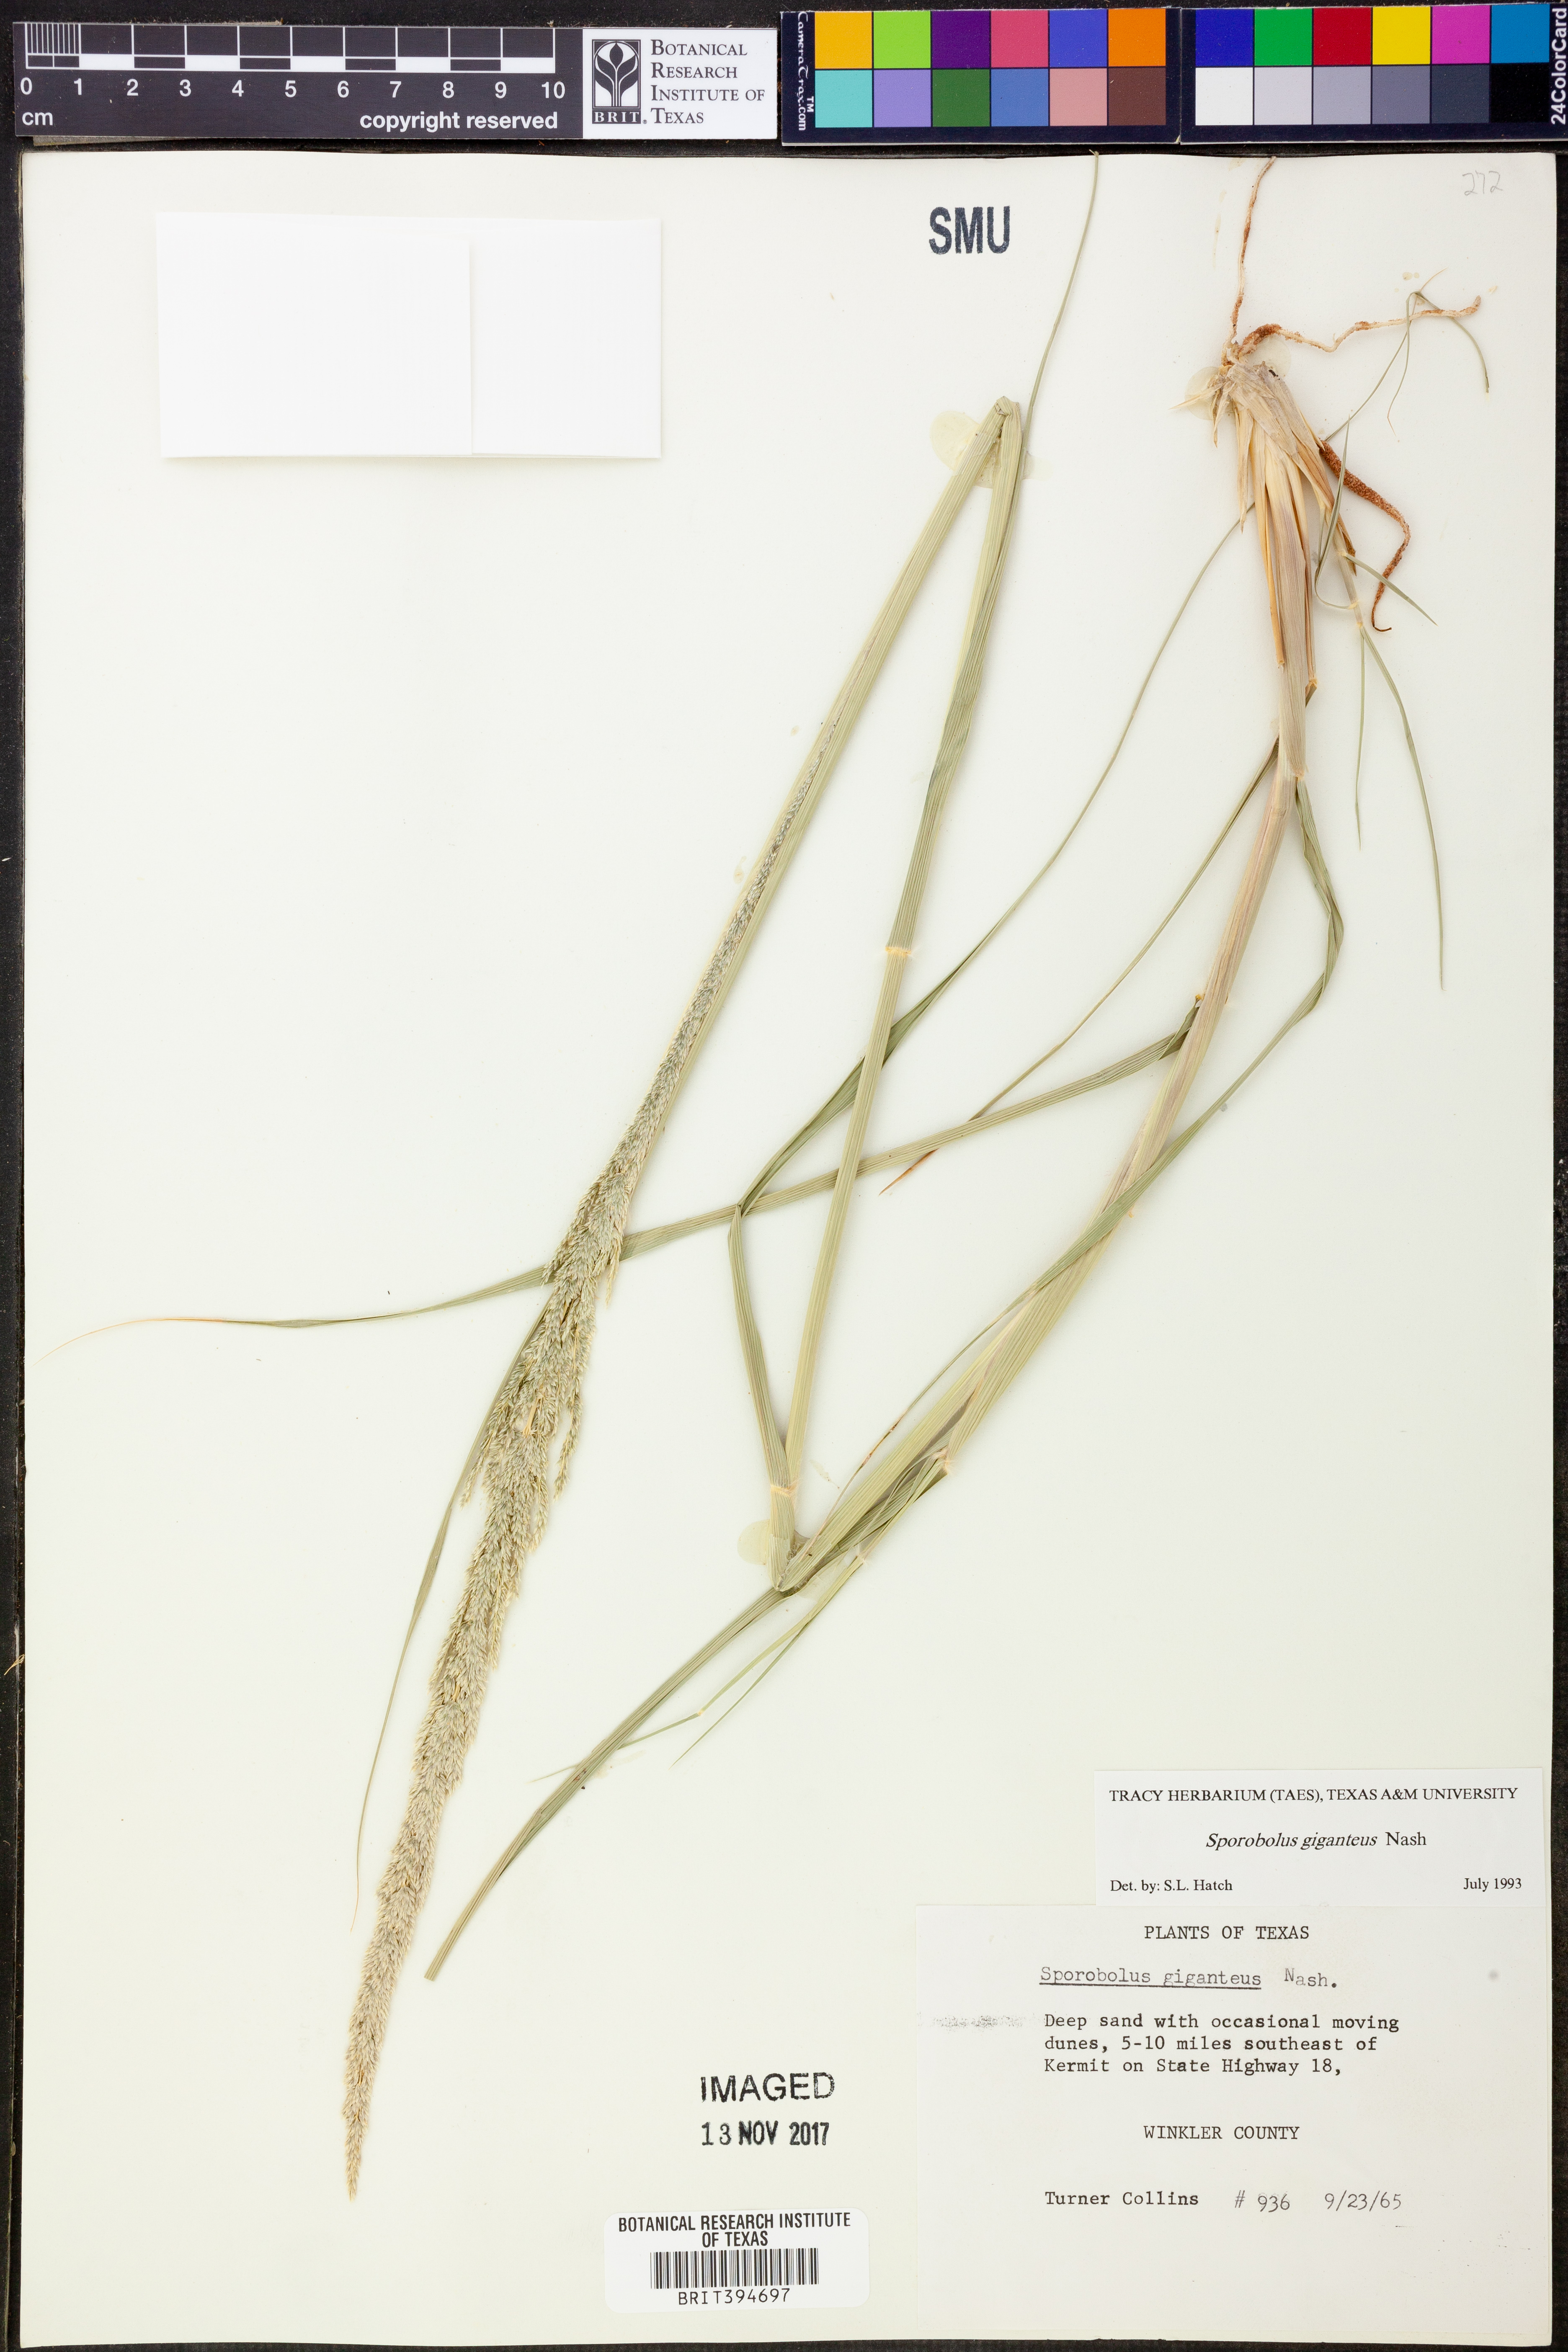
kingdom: Plantae
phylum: Tracheophyta
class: Liliopsida
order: Poales
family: Poaceae
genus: Sporobolus
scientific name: Sporobolus giganteus
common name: Giant dropseed
